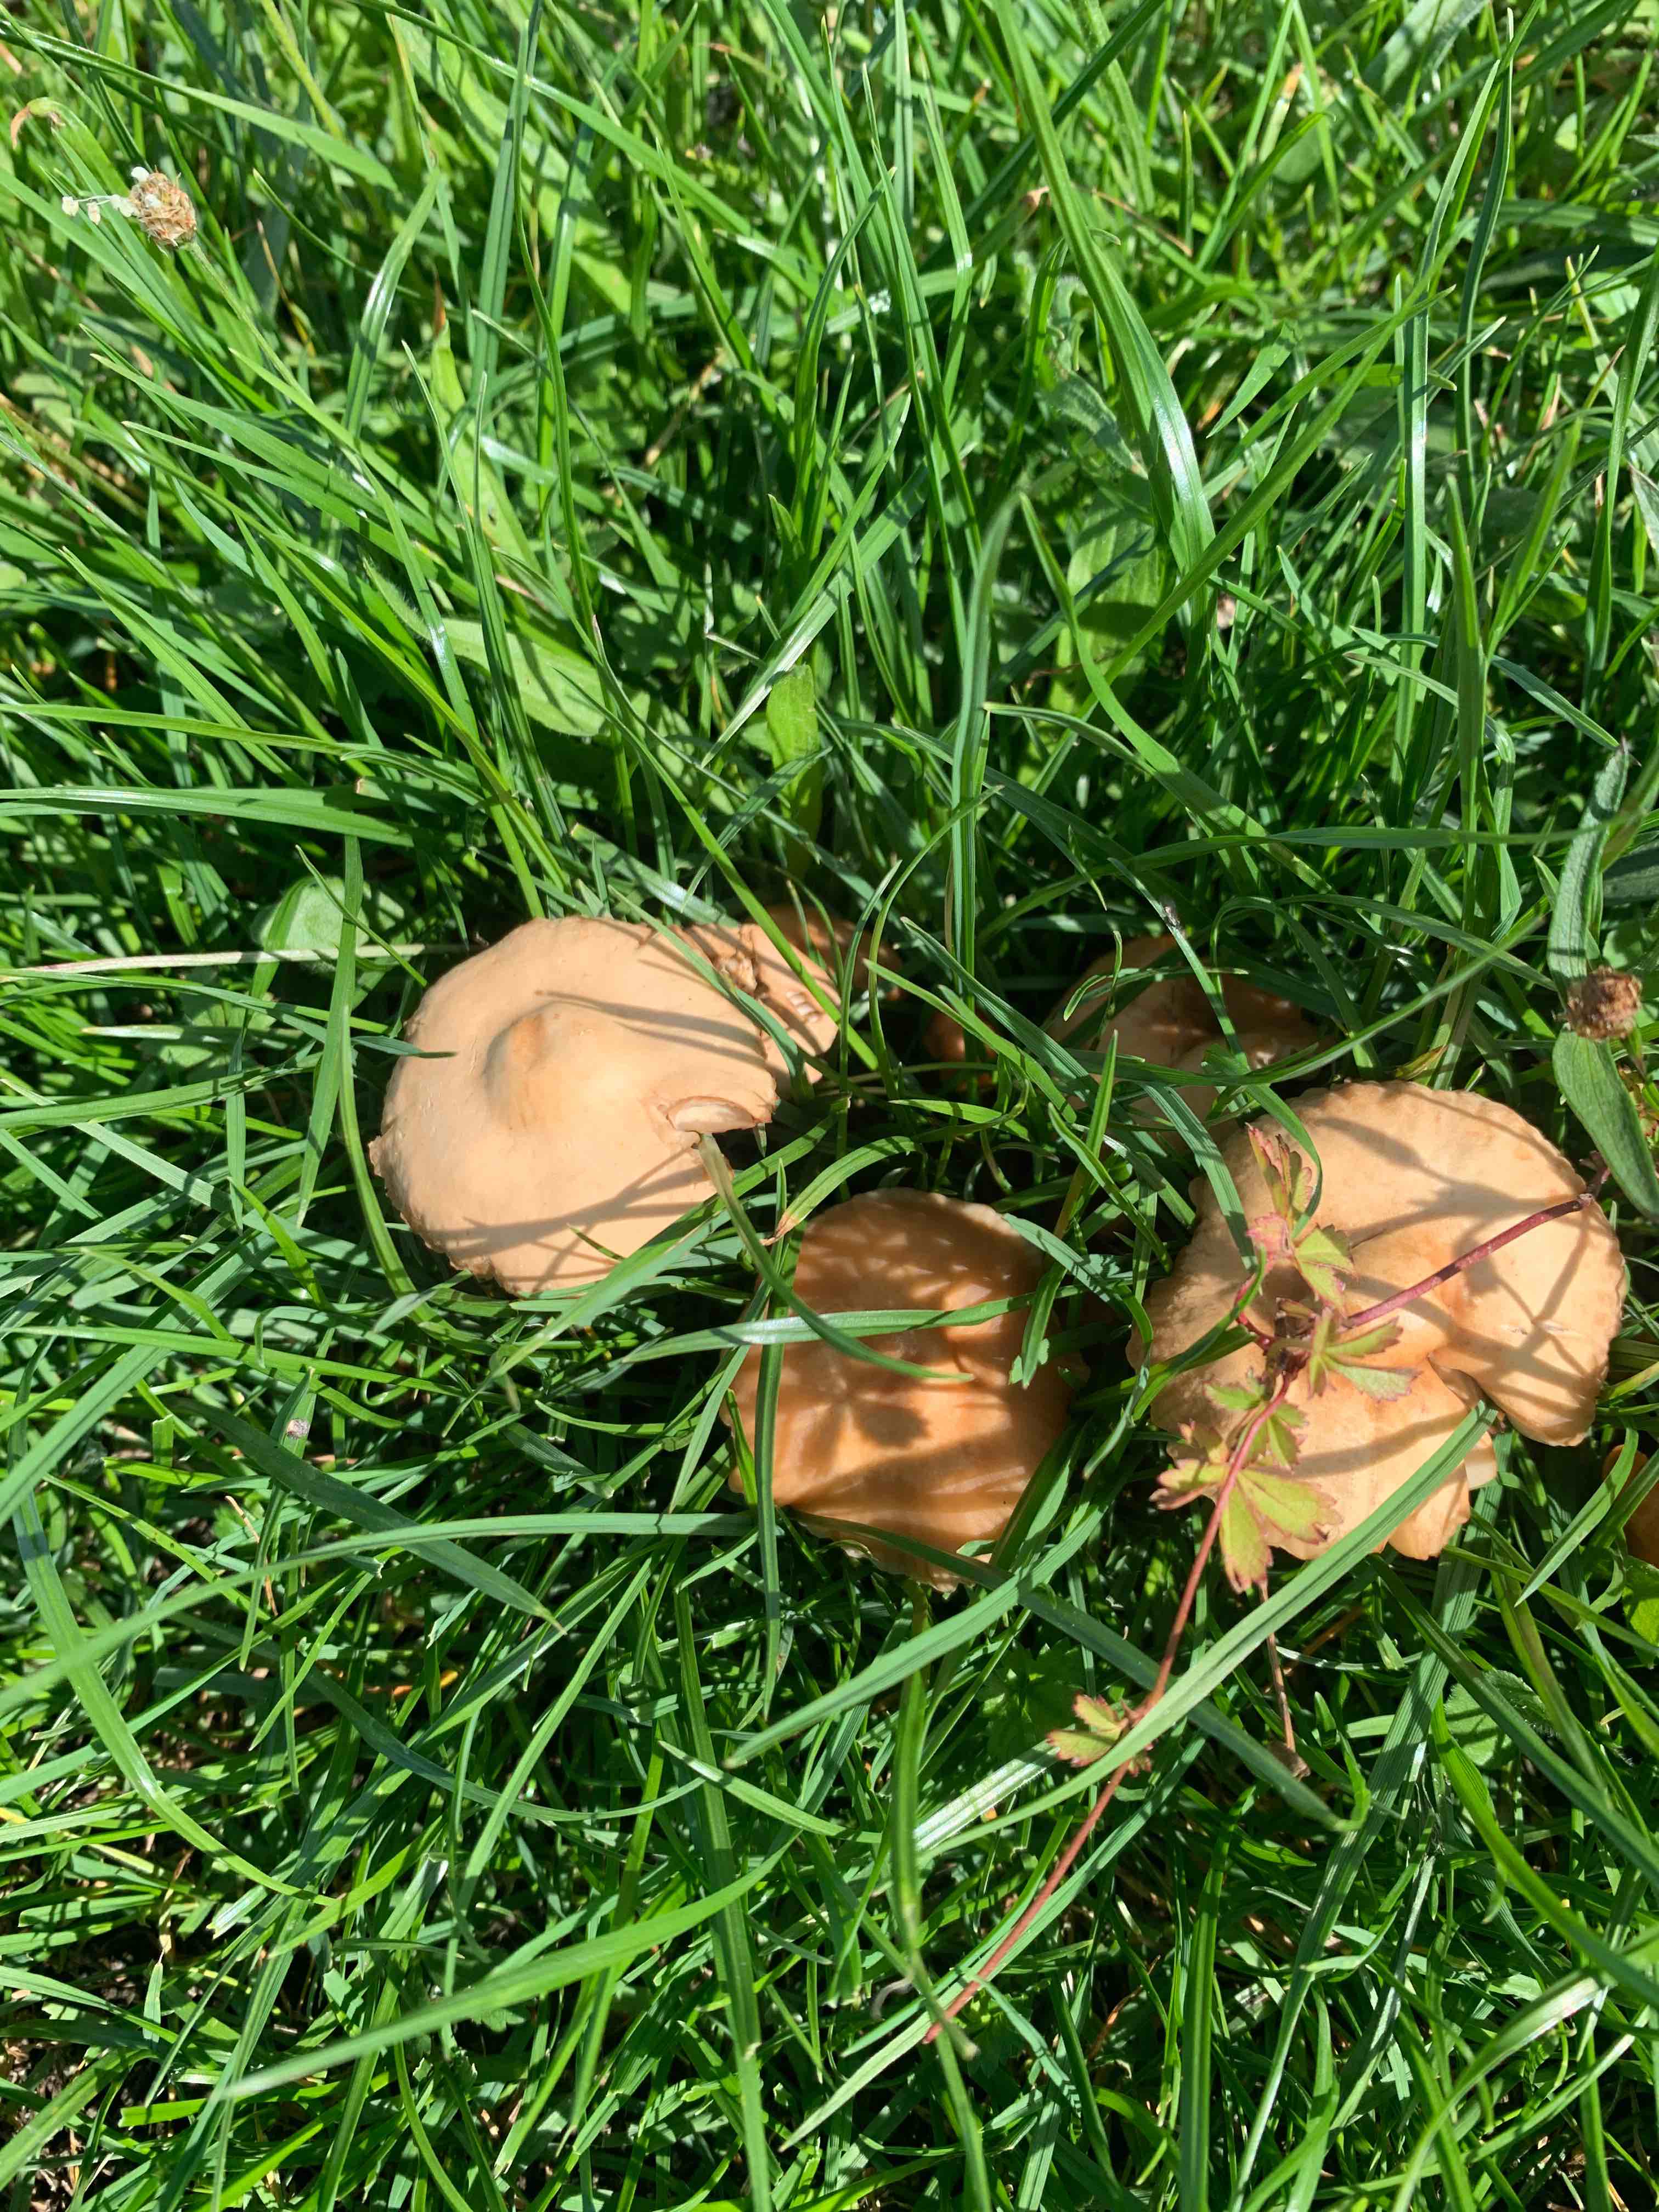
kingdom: Fungi
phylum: Basidiomycota
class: Agaricomycetes
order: Agaricales
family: Marasmiaceae
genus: Marasmius
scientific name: Marasmius oreades
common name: elledans-bruskhat
